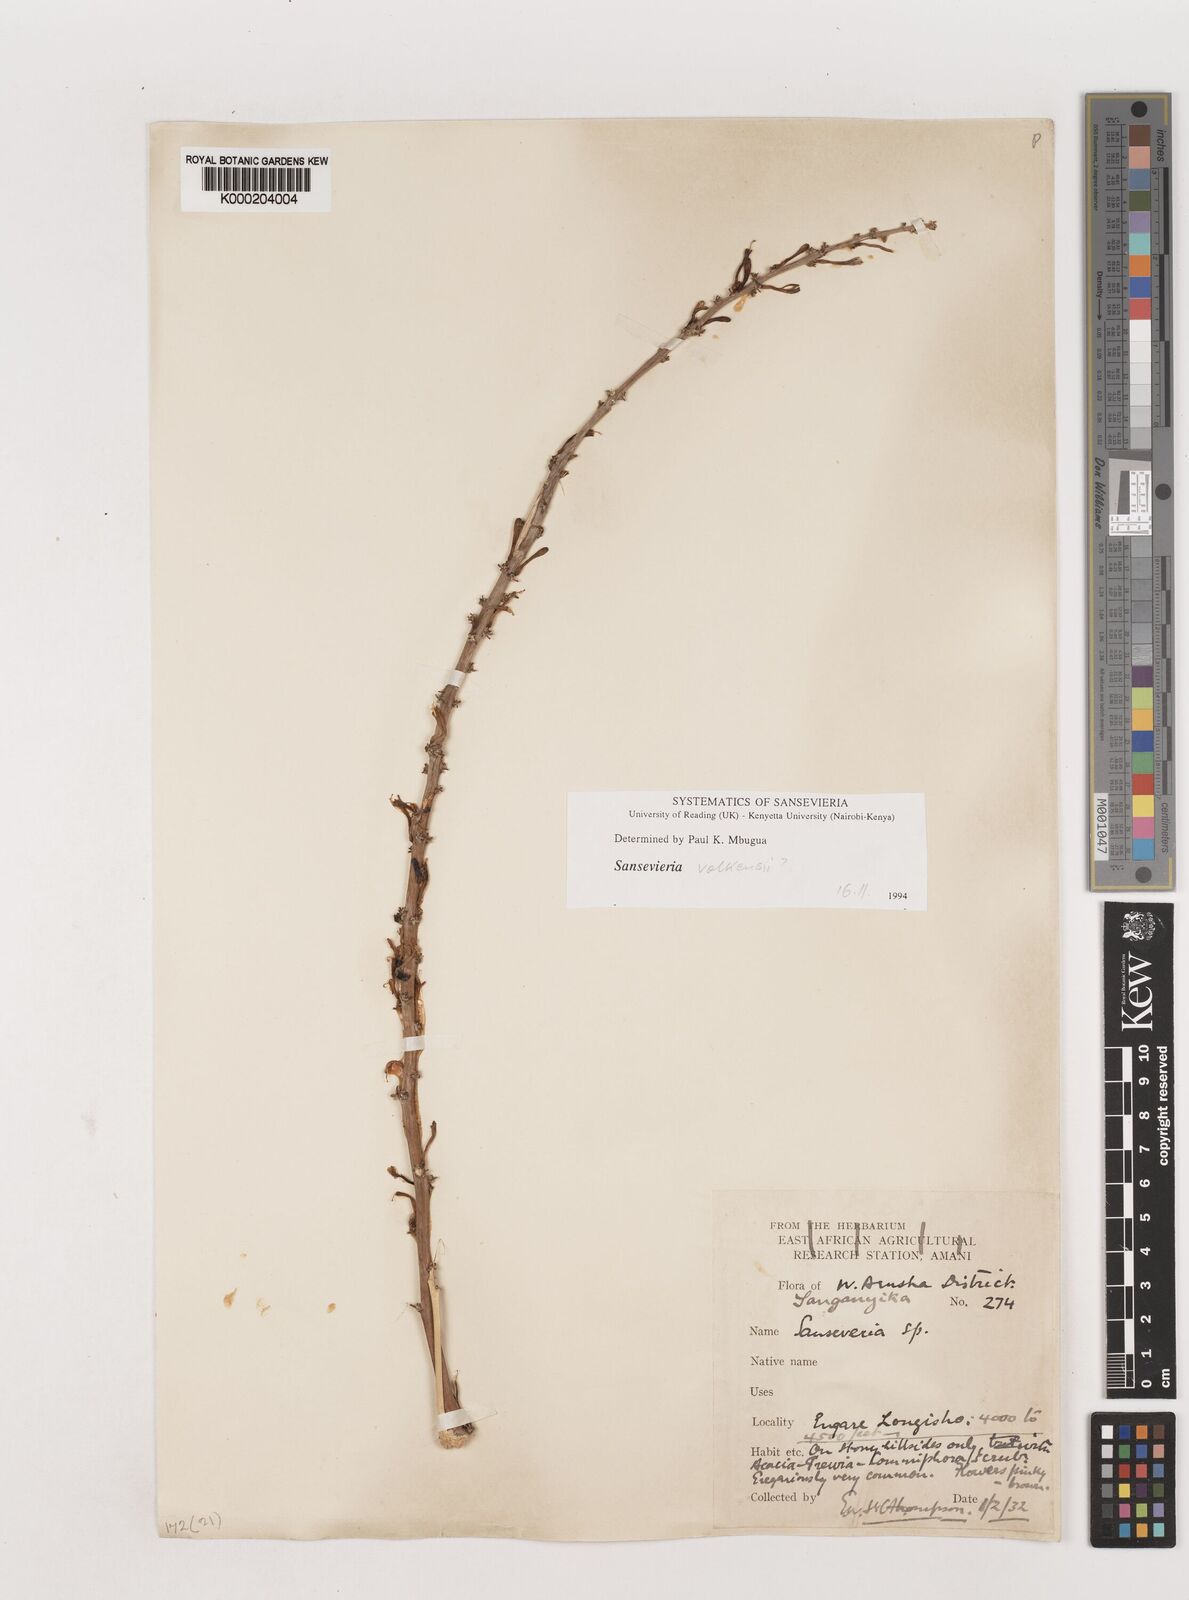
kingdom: Plantae
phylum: Tracheophyta
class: Liliopsida
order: Asparagales
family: Asparagaceae
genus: Dracaena
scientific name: Dracaena
